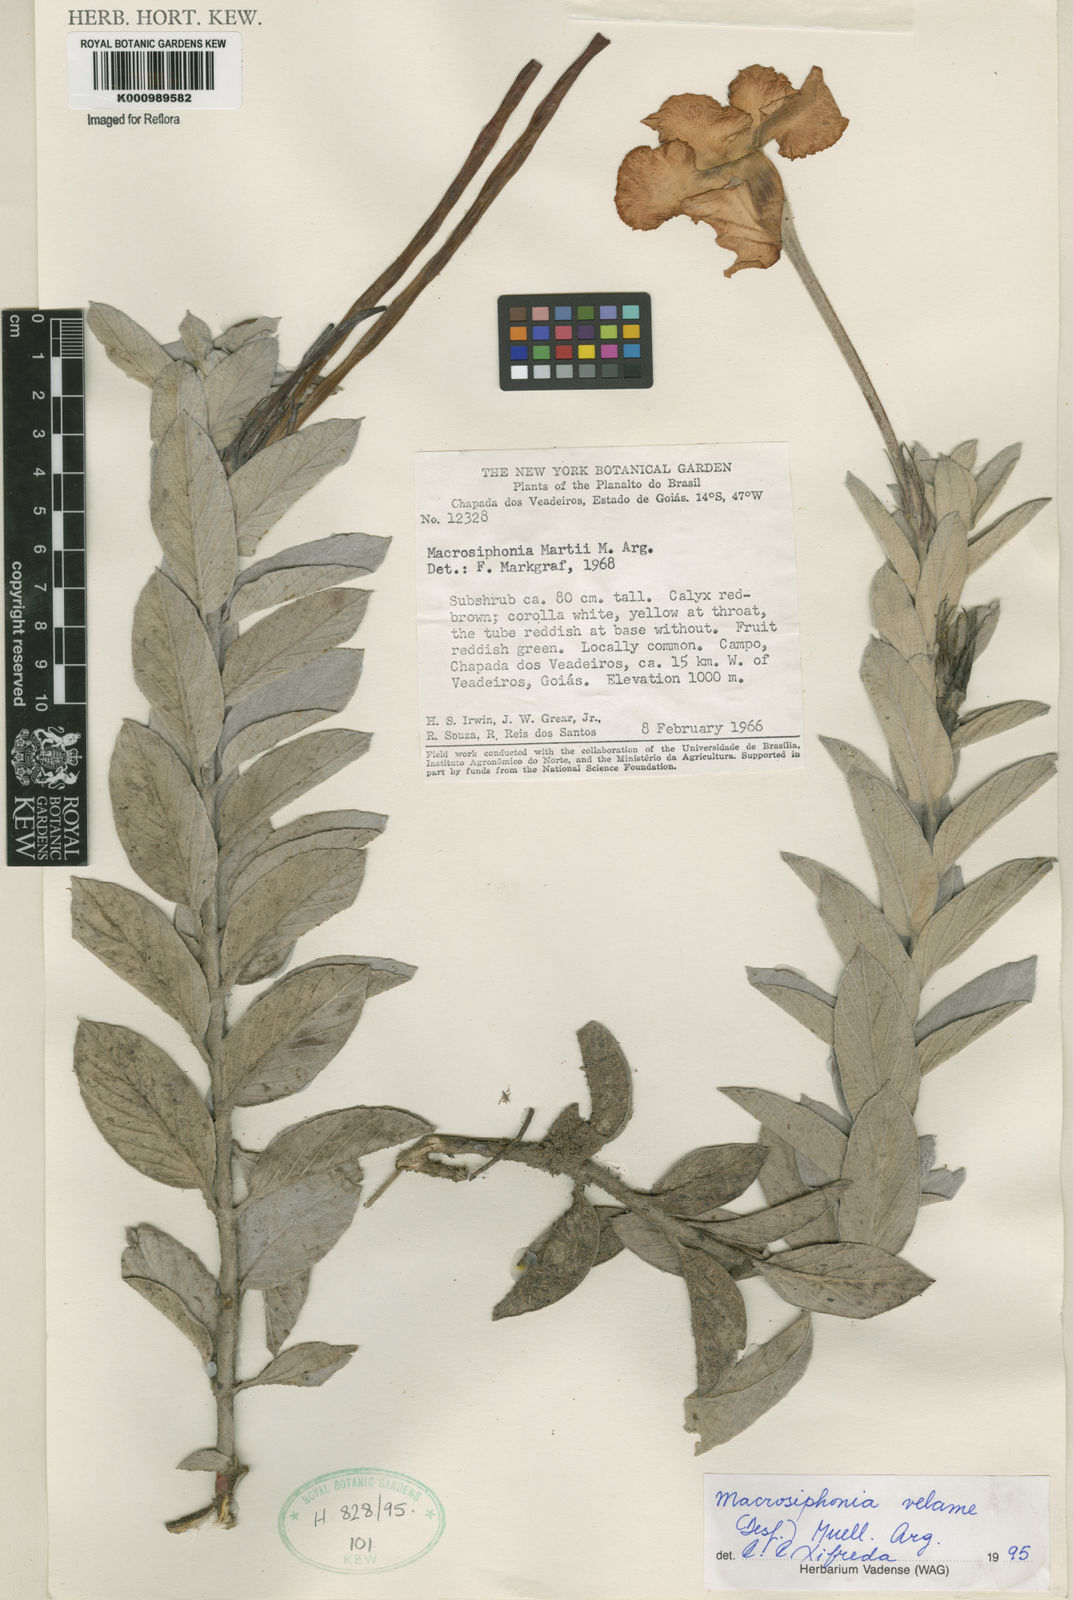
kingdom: Plantae
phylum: Tracheophyta
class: Magnoliopsida
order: Gentianales
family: Apocynaceae
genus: Mandevilla
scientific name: Mandevilla velame
